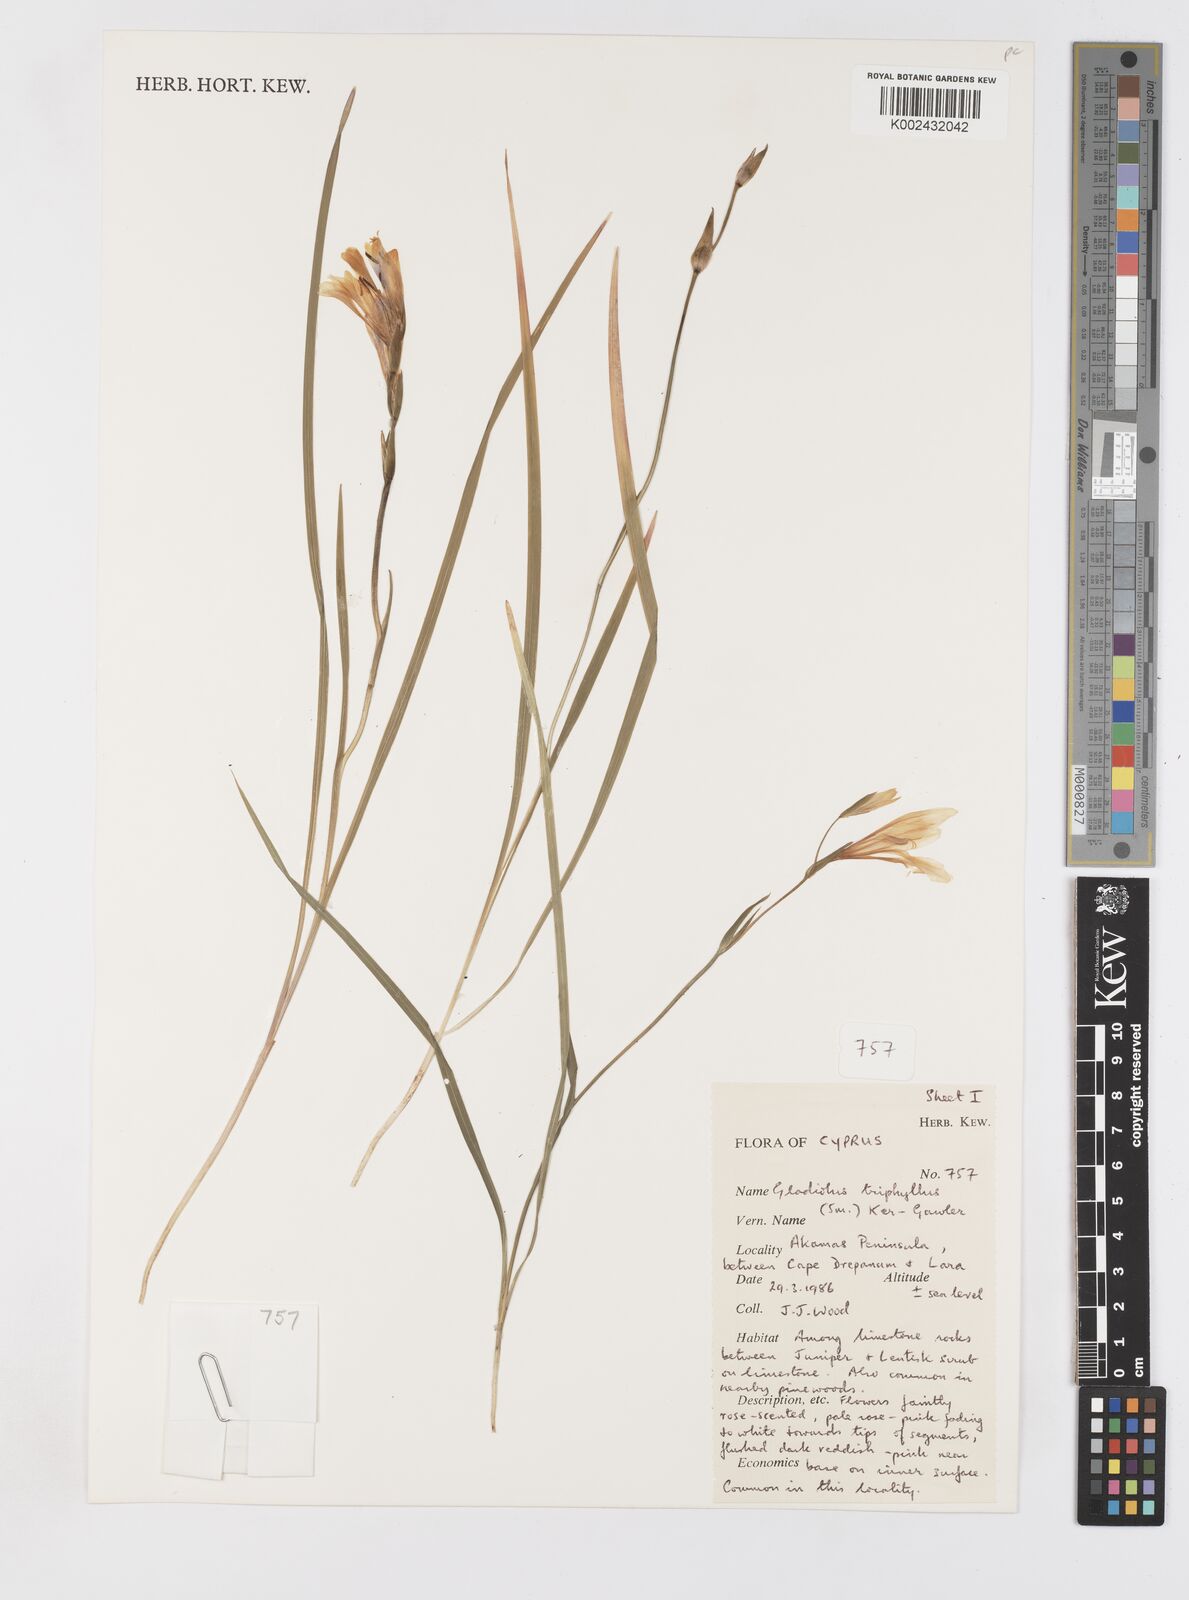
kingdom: Plantae
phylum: Tracheophyta
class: Liliopsida
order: Asparagales
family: Iridaceae
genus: Gladiolus
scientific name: Gladiolus triphyllus
